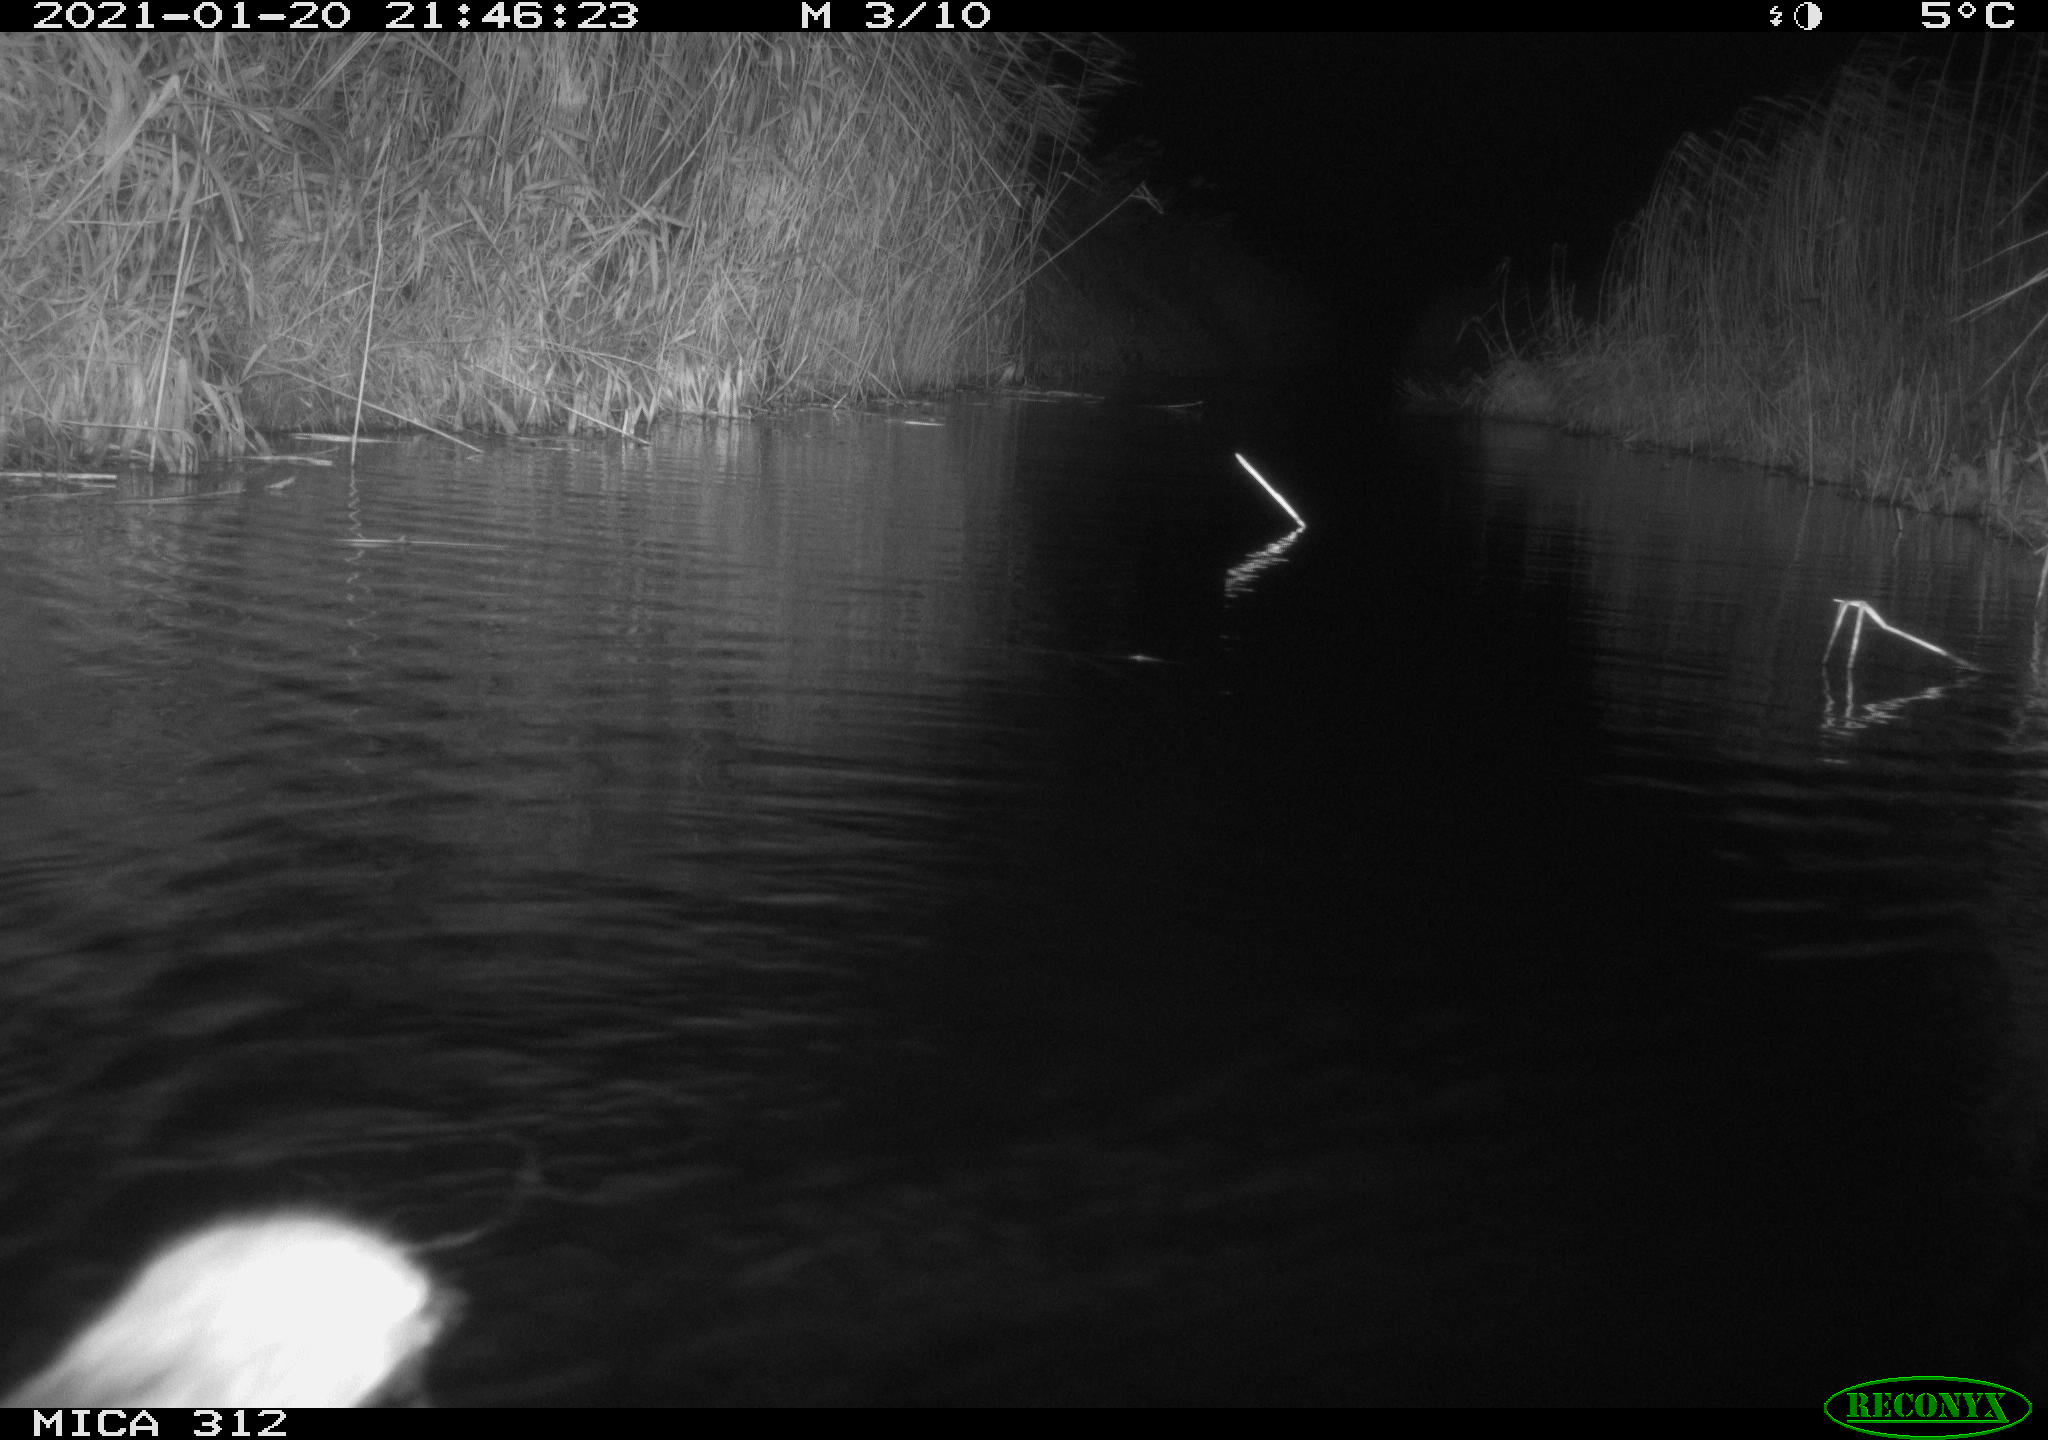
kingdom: Animalia
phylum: Chordata
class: Mammalia
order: Rodentia
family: Muridae
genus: Rattus
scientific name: Rattus norvegicus
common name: Brown rat
